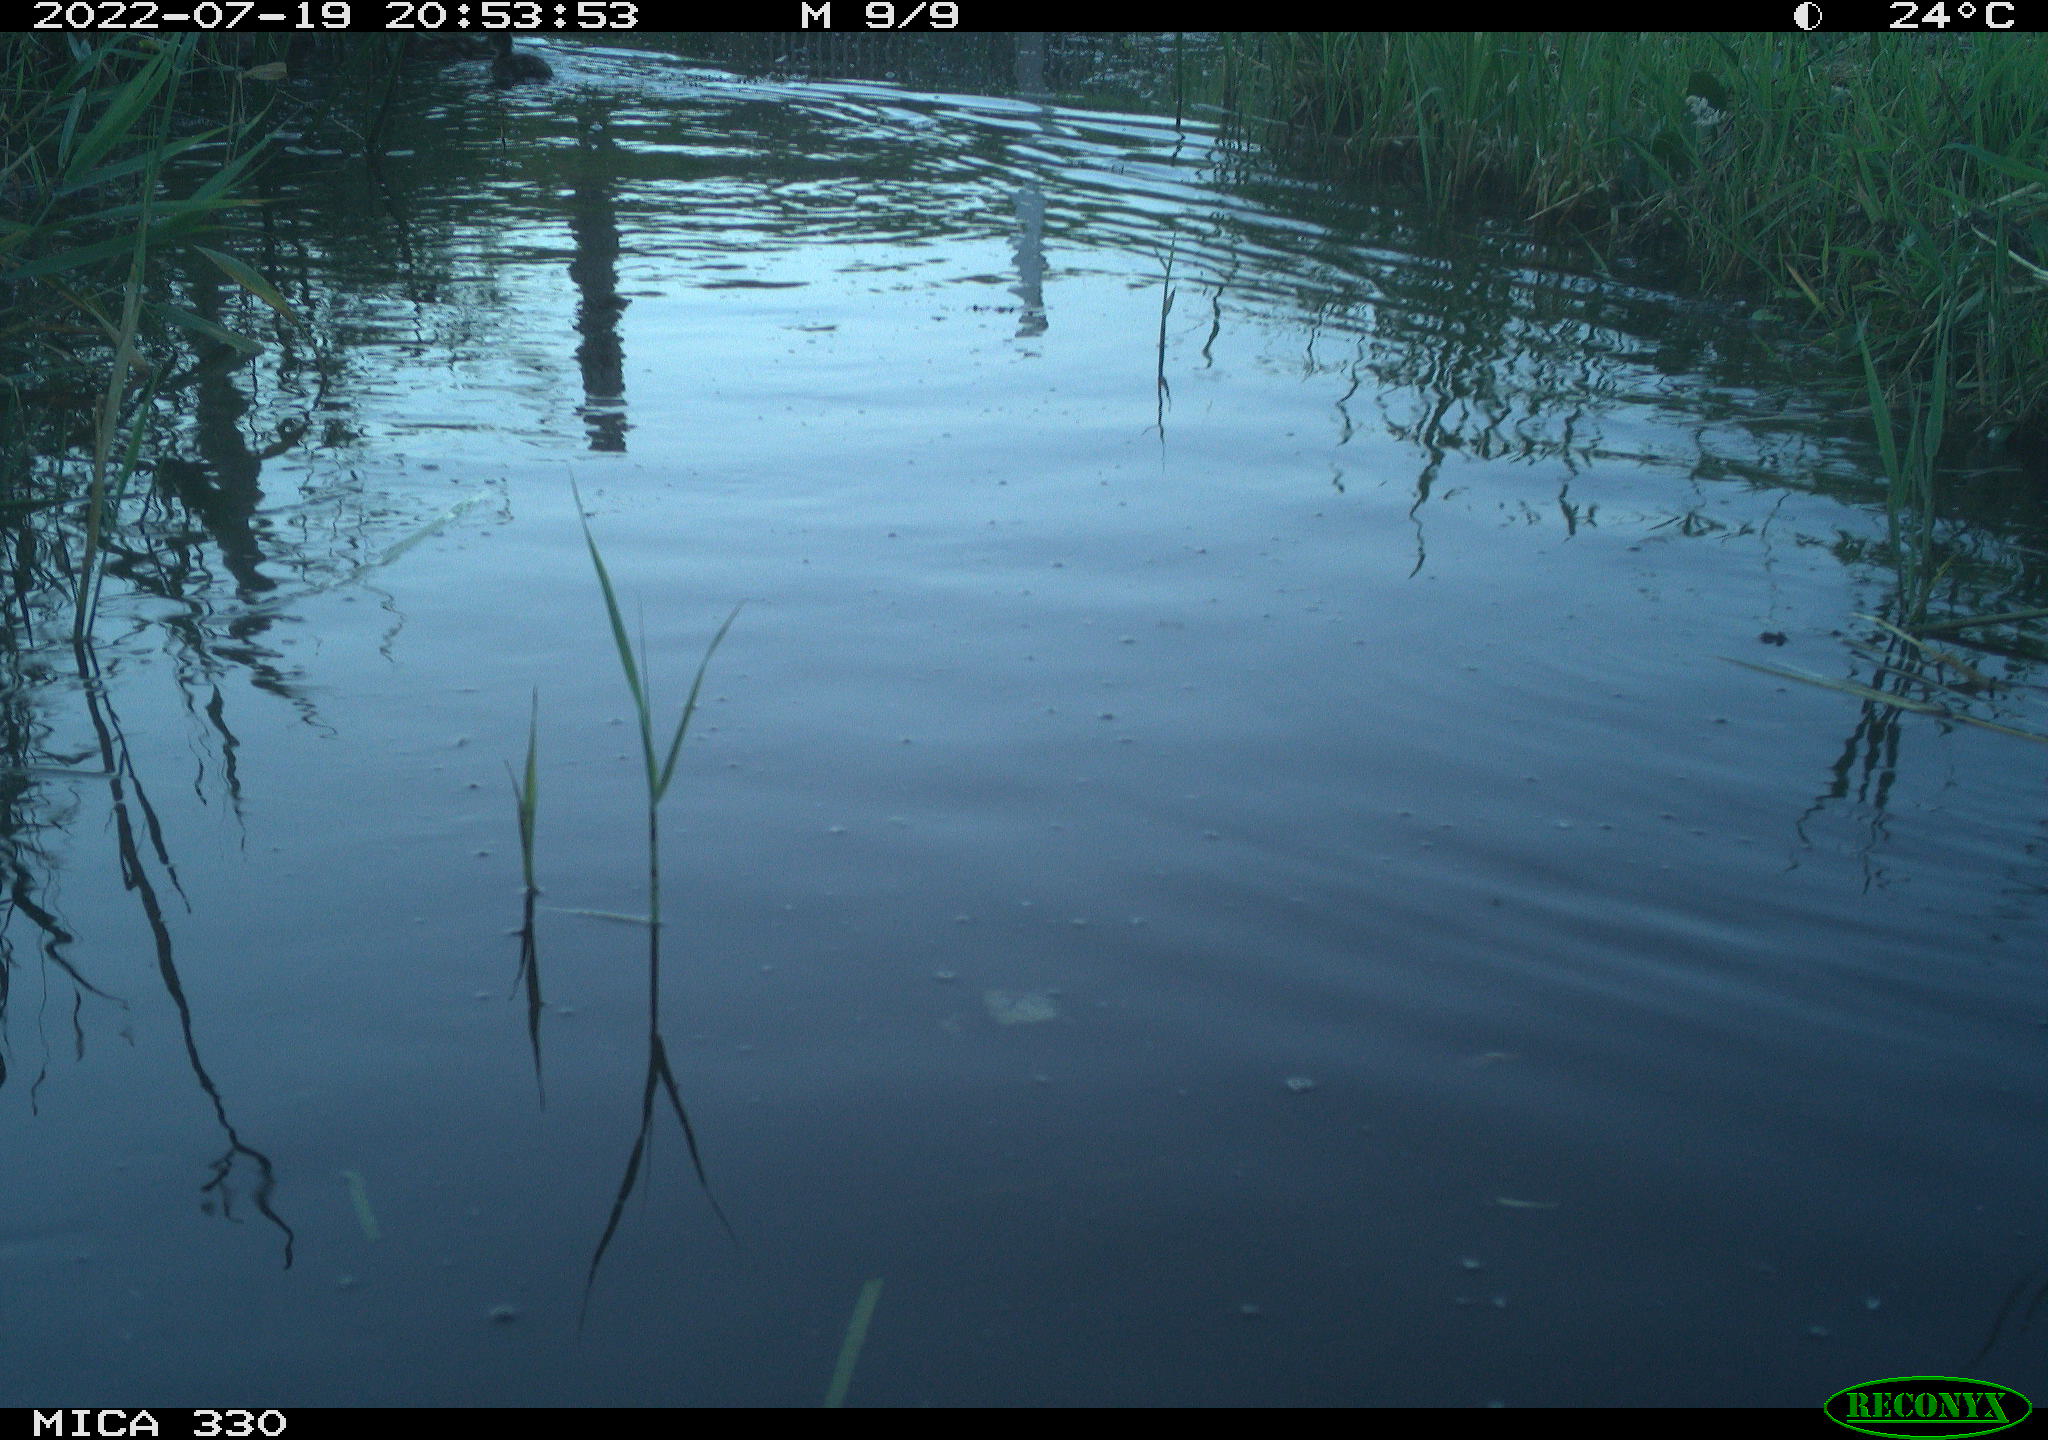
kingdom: Animalia
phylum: Chordata
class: Aves
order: Anseriformes
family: Anatidae
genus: Anas
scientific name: Anas platyrhynchos
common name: Mallard
